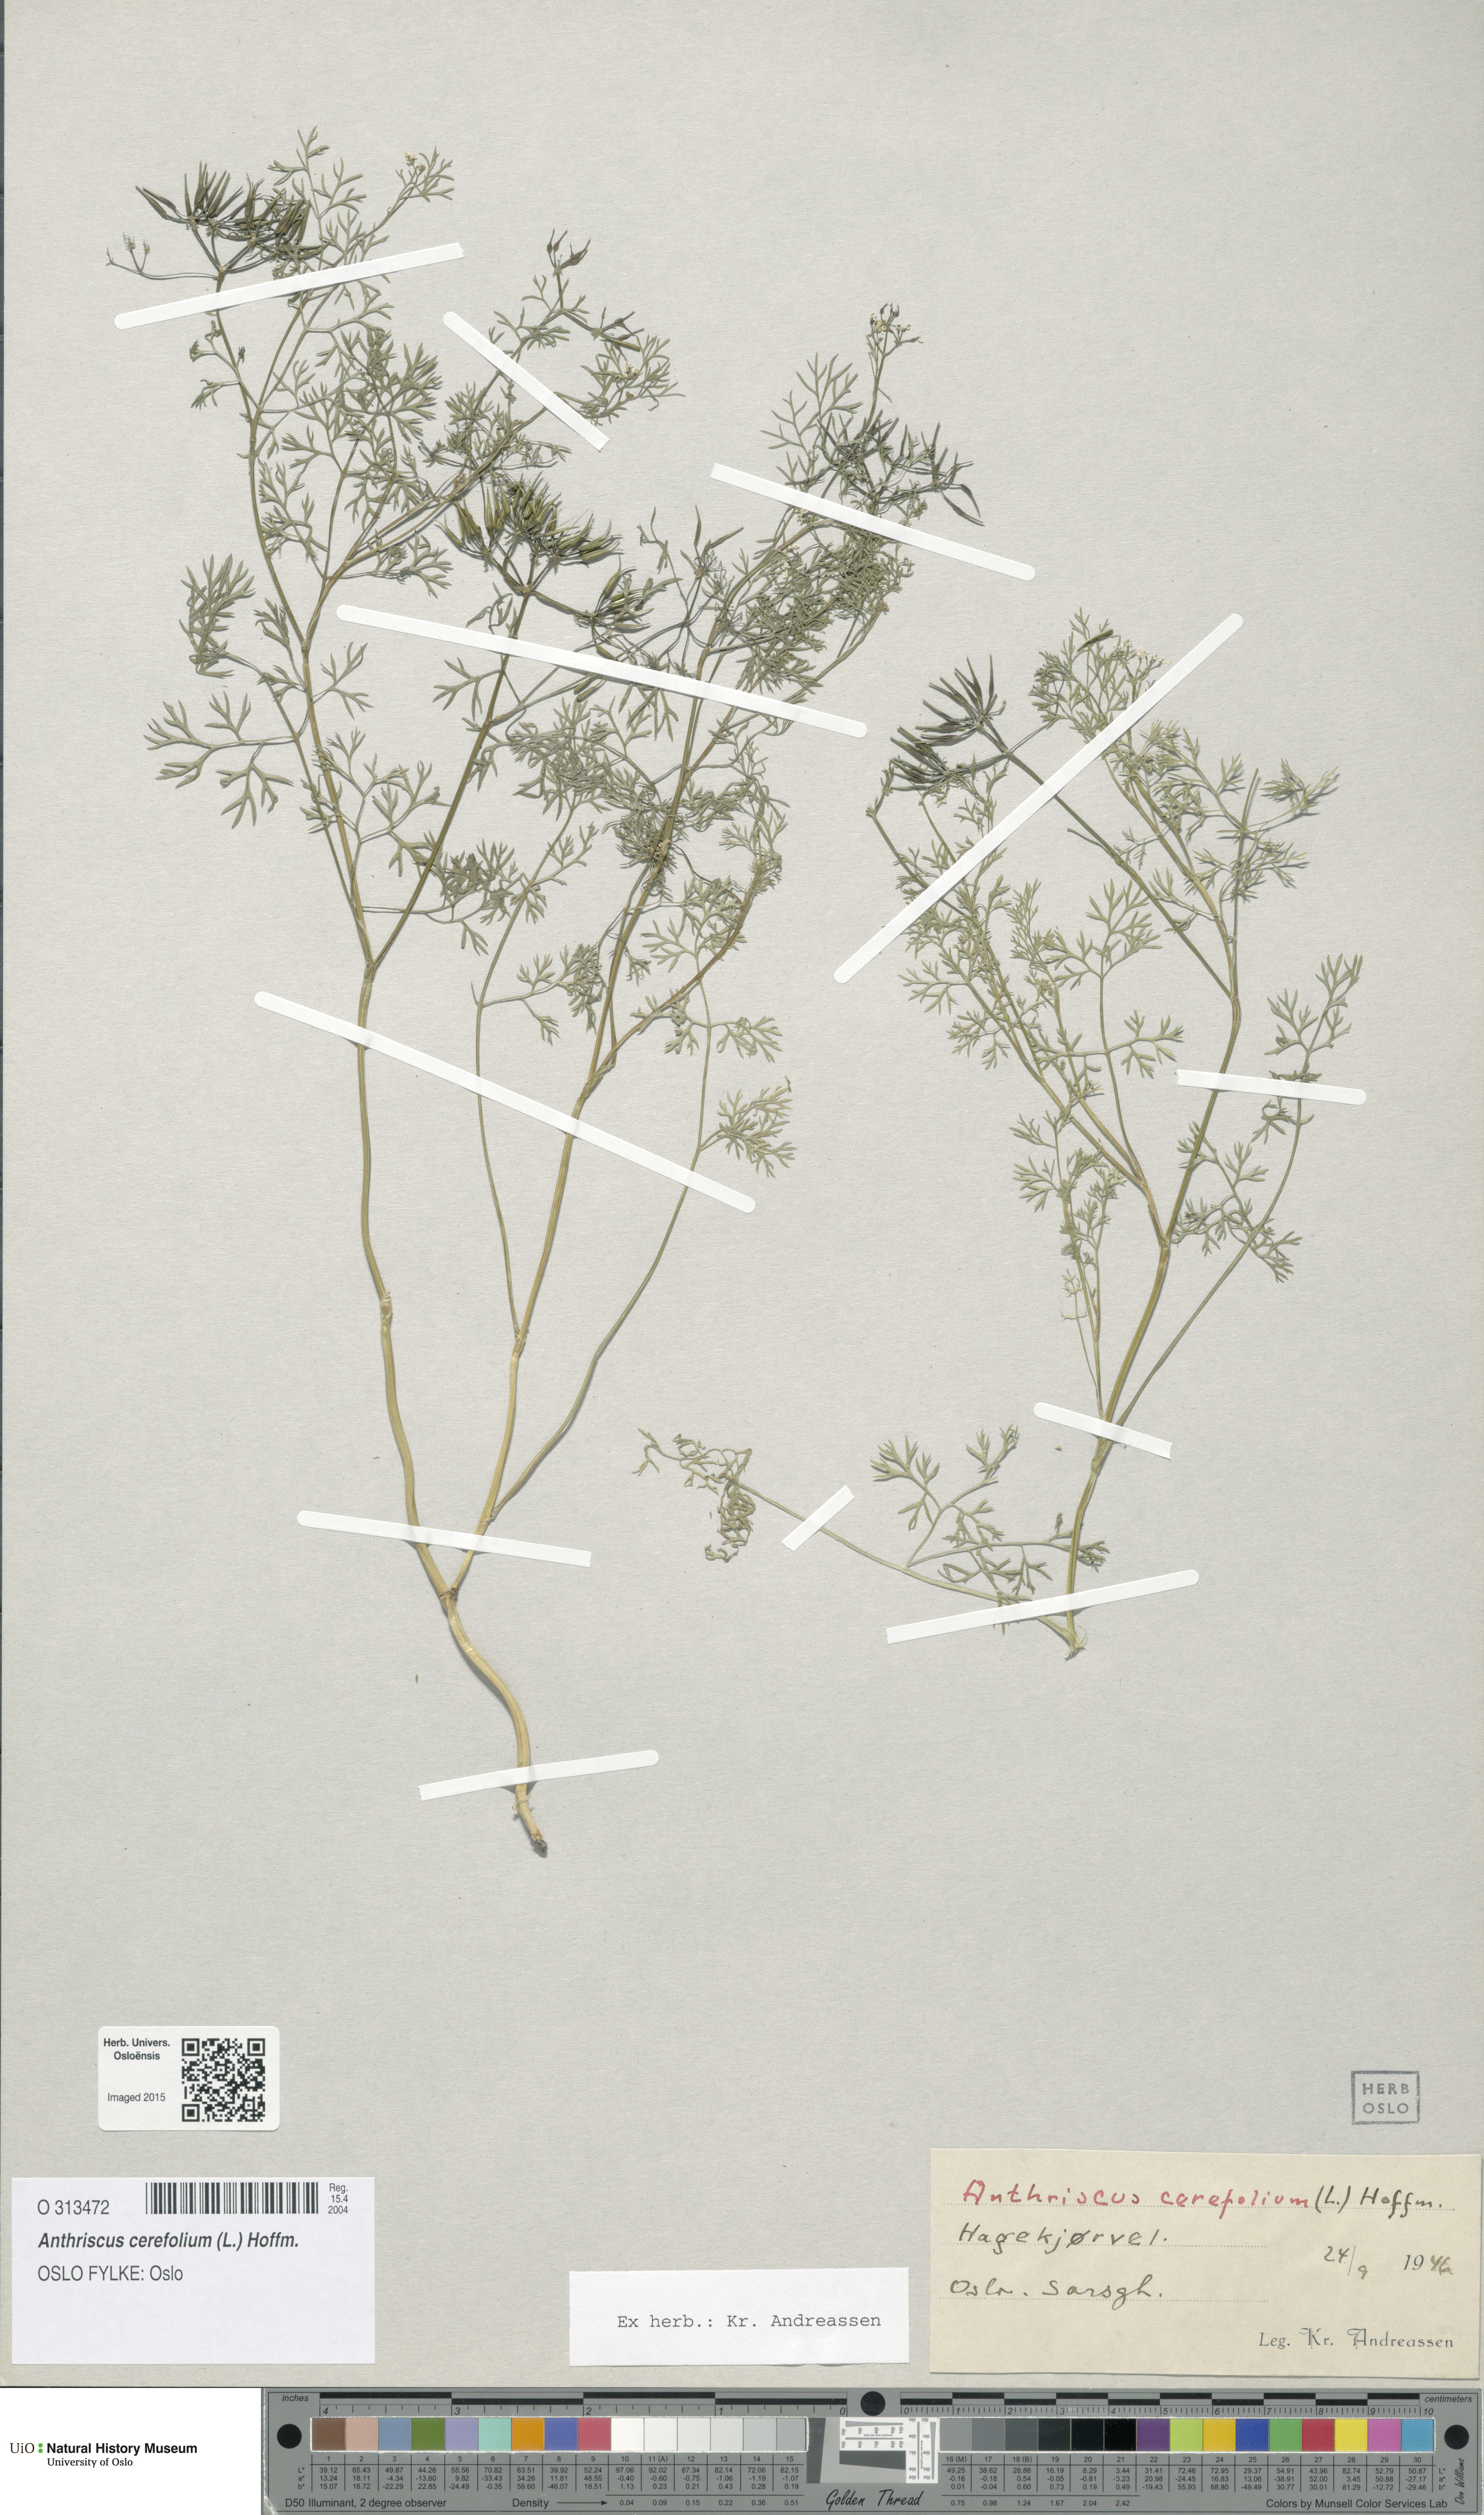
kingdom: Plantae
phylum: Tracheophyta
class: Magnoliopsida
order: Apiales
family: Apiaceae
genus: Anthriscus
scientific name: Anthriscus cerefolium
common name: Garden chervil
